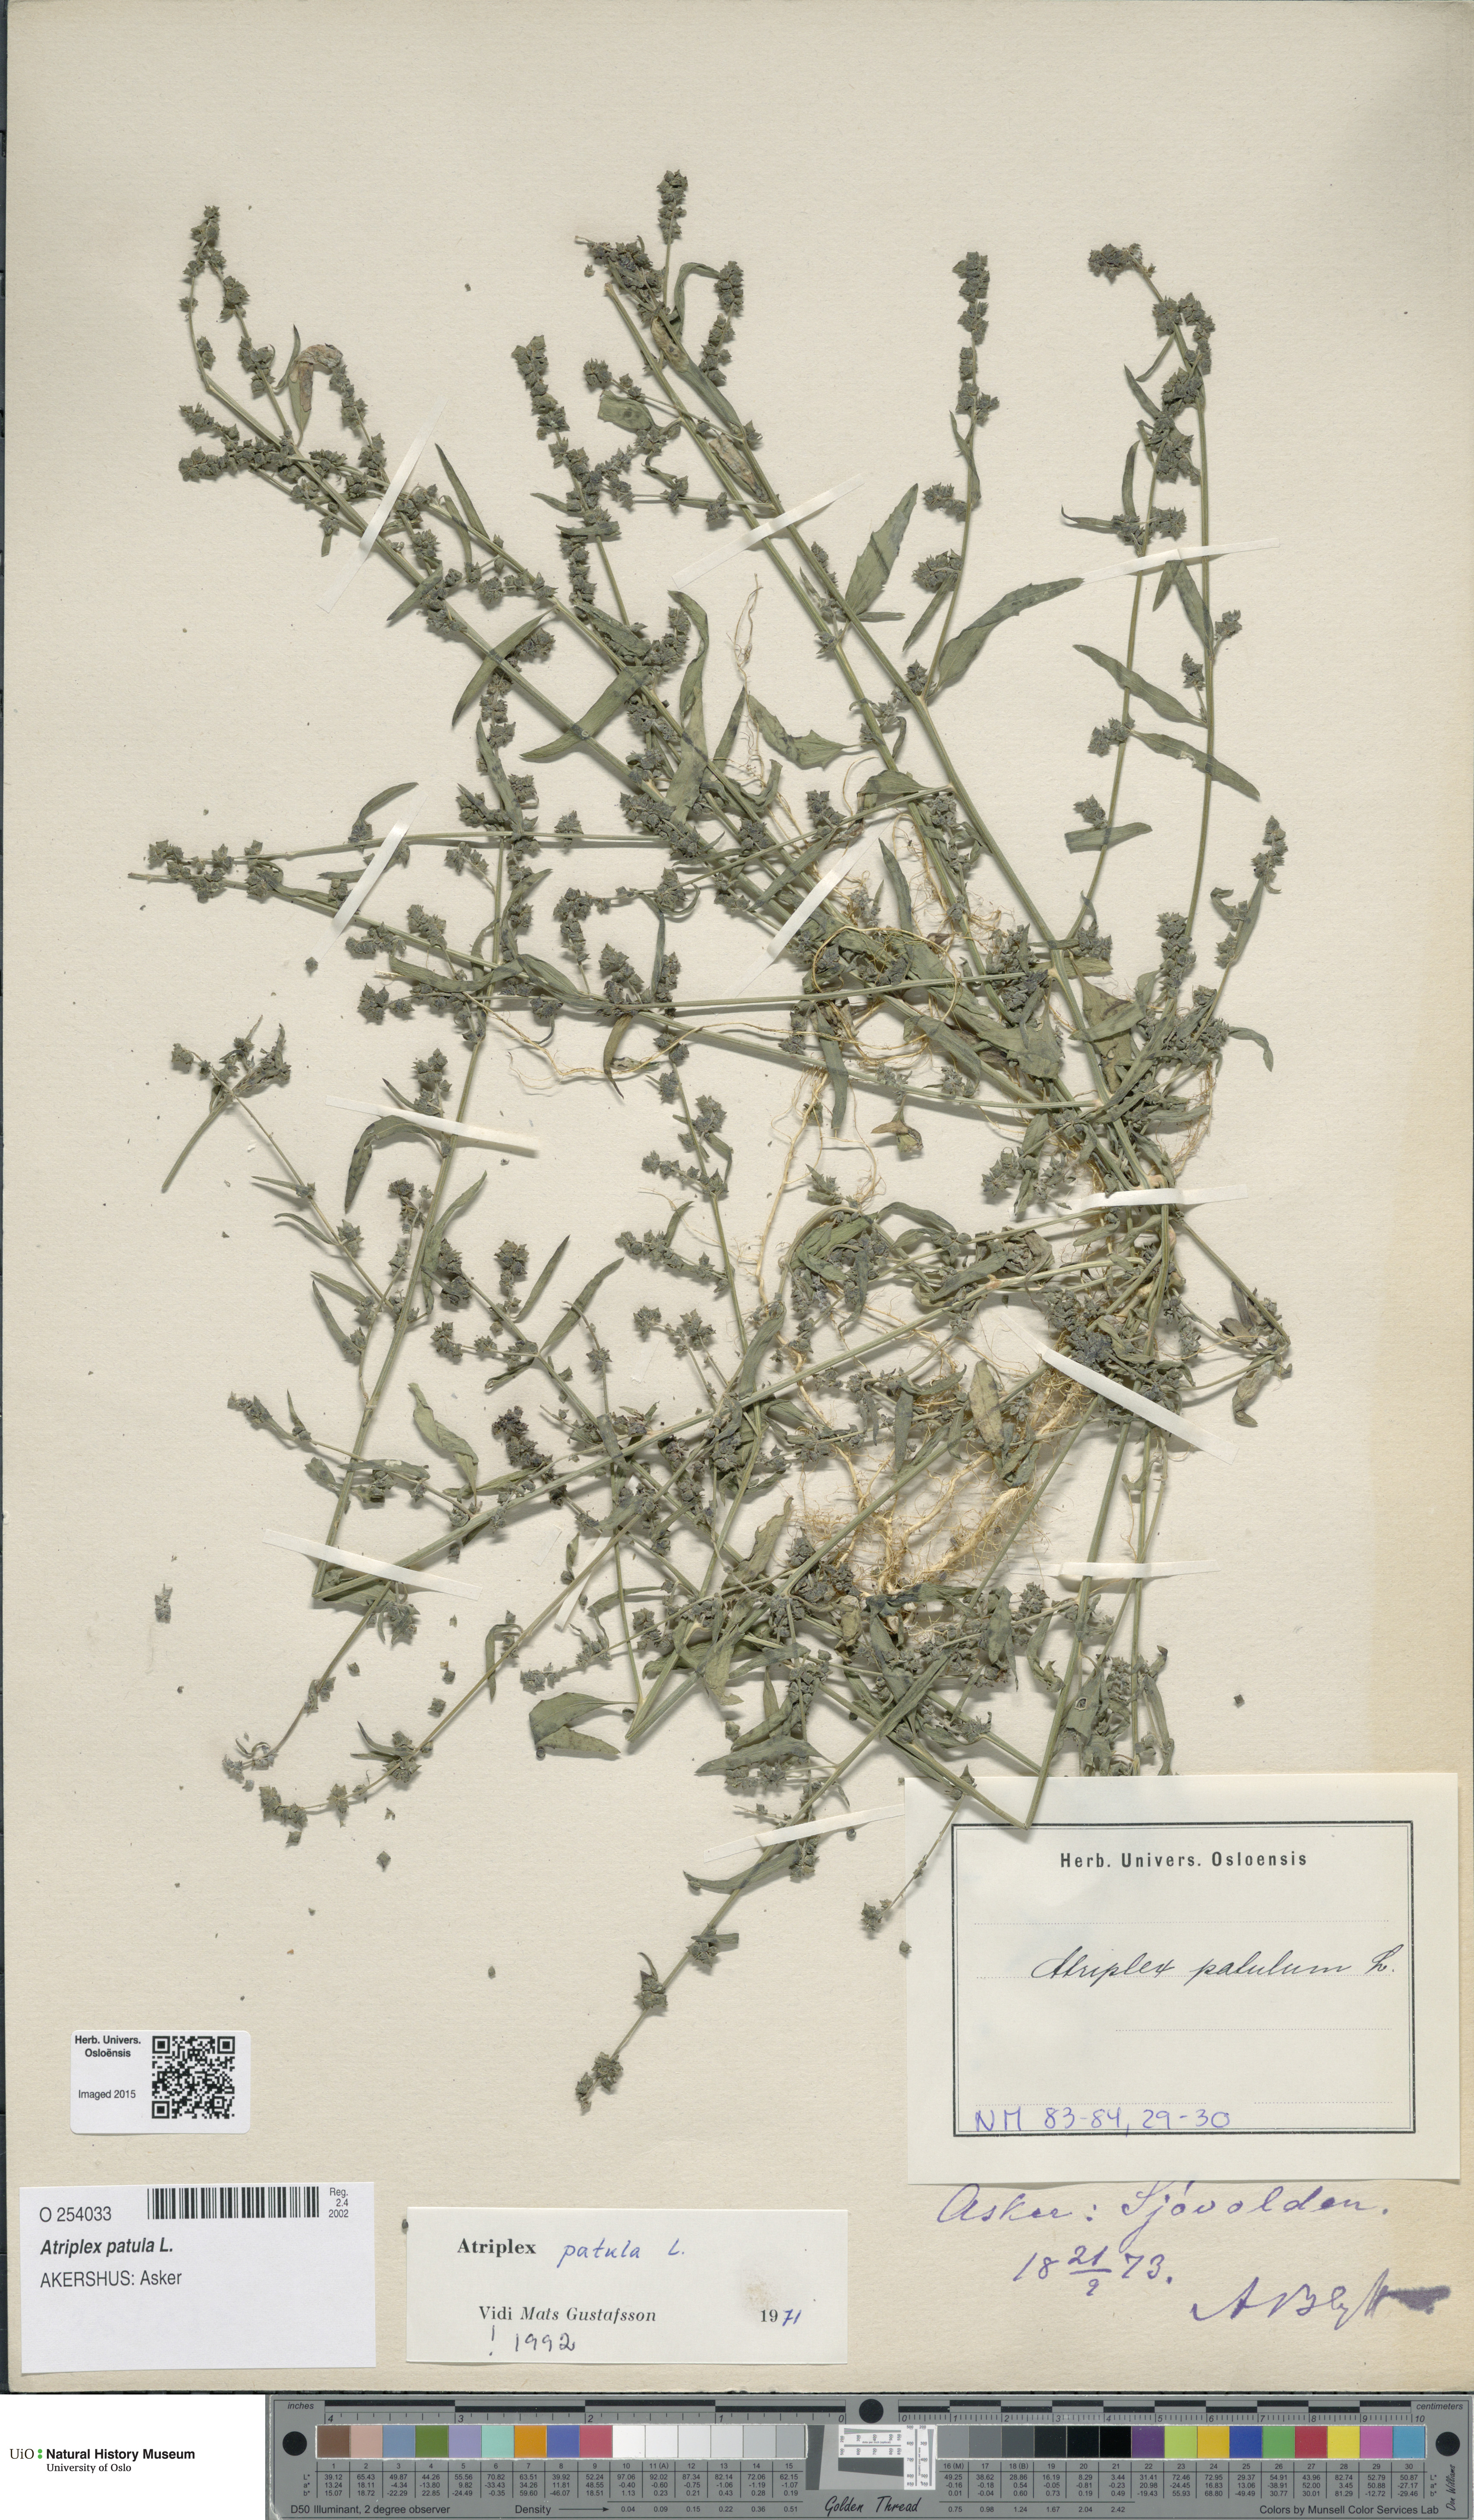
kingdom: Plantae
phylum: Tracheophyta
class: Magnoliopsida
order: Caryophyllales
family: Amaranthaceae
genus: Atriplex
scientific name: Atriplex patula
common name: Common orache
